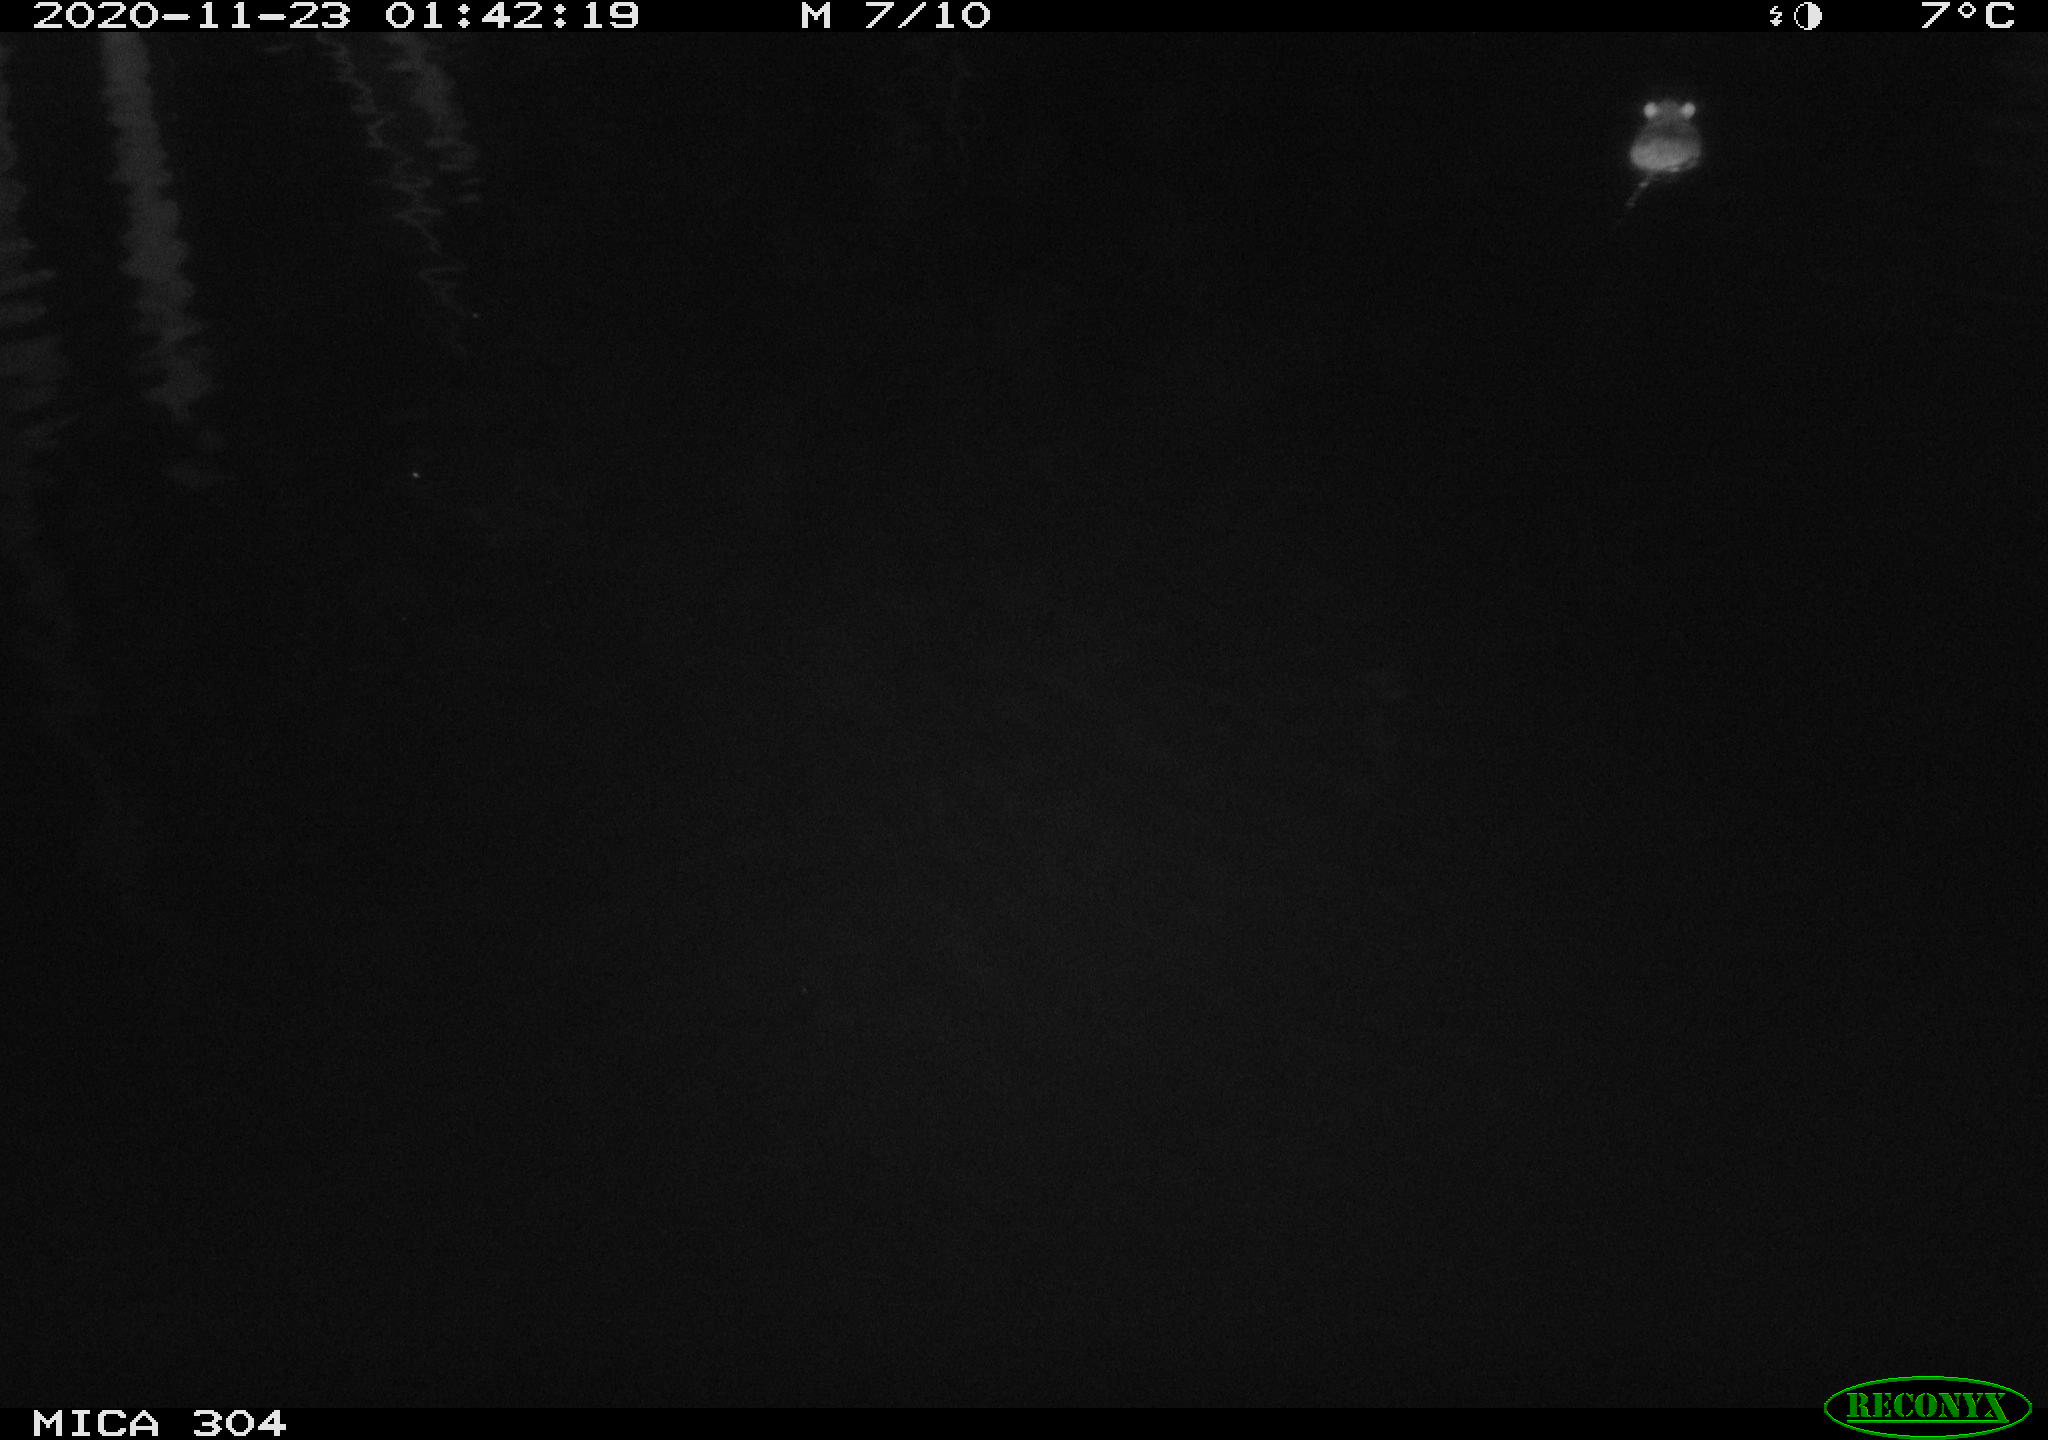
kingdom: Animalia
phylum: Chordata
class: Mammalia
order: Rodentia
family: Muridae
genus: Rattus
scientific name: Rattus norvegicus
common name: Brown rat
